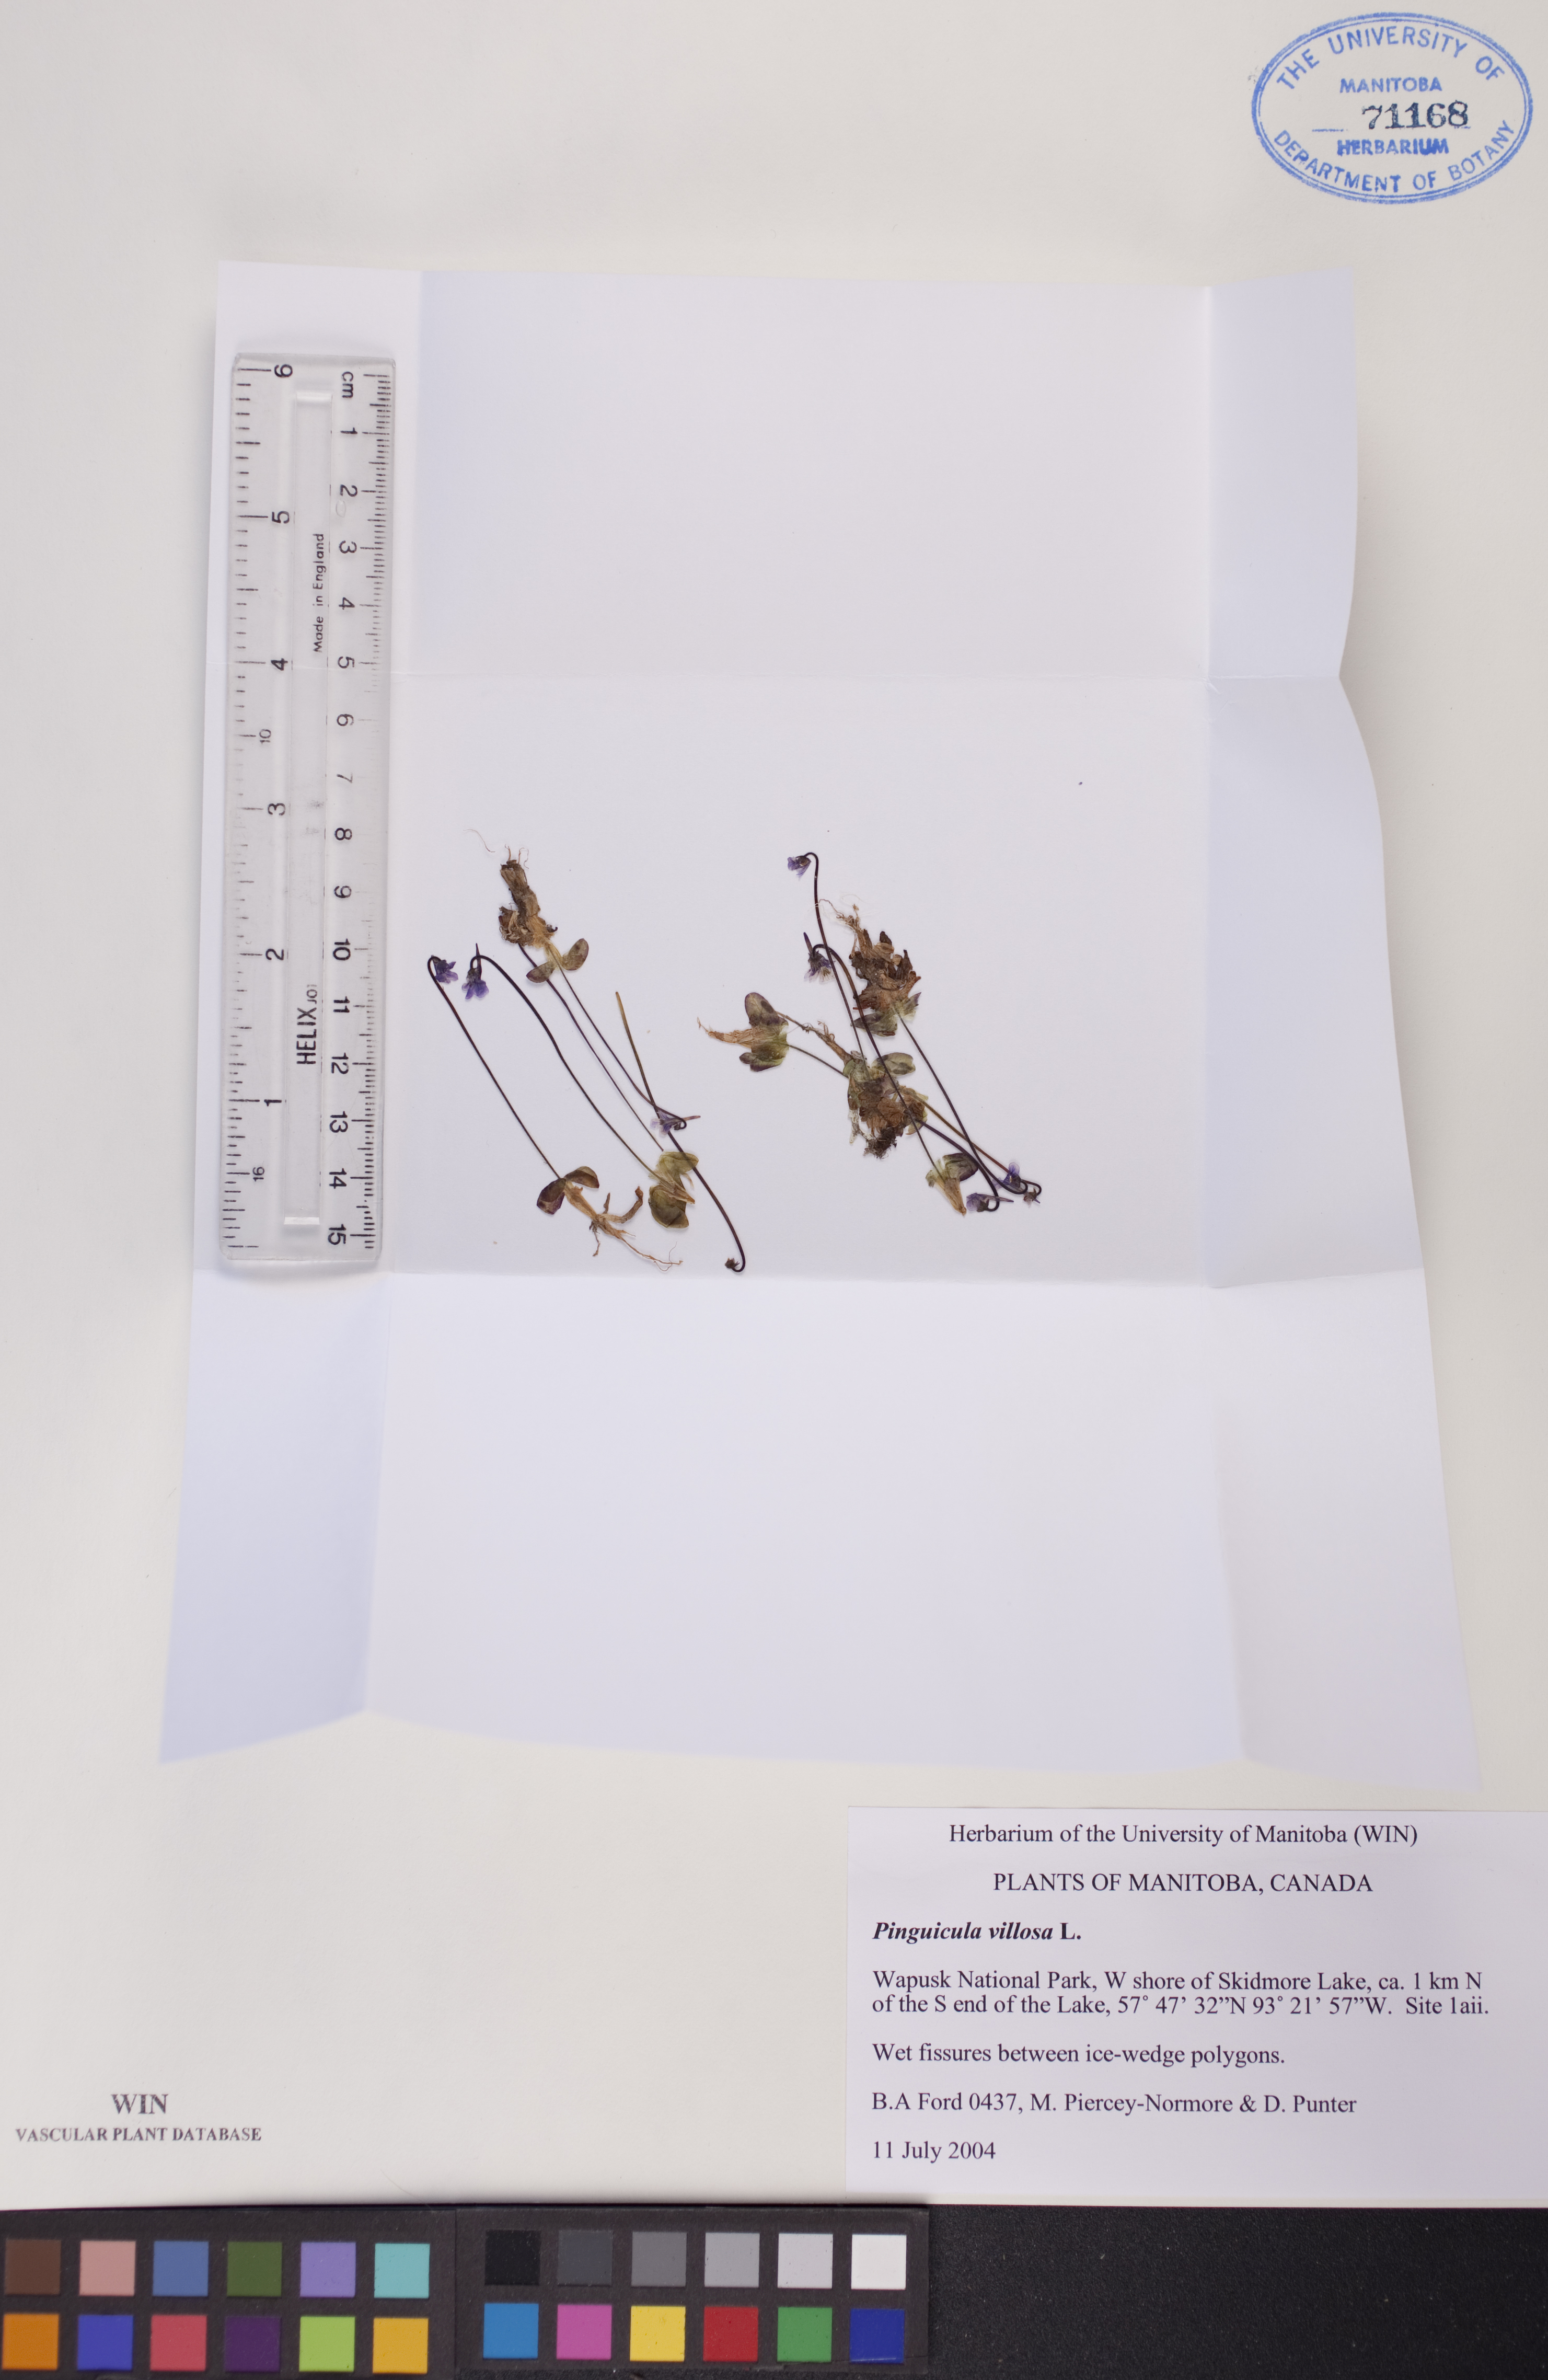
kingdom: Plantae
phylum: Tracheophyta
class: Magnoliopsida
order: Lamiales
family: Lentibulariaceae
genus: Pinguicula
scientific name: Pinguicula villosa
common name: Hairy butterwort
